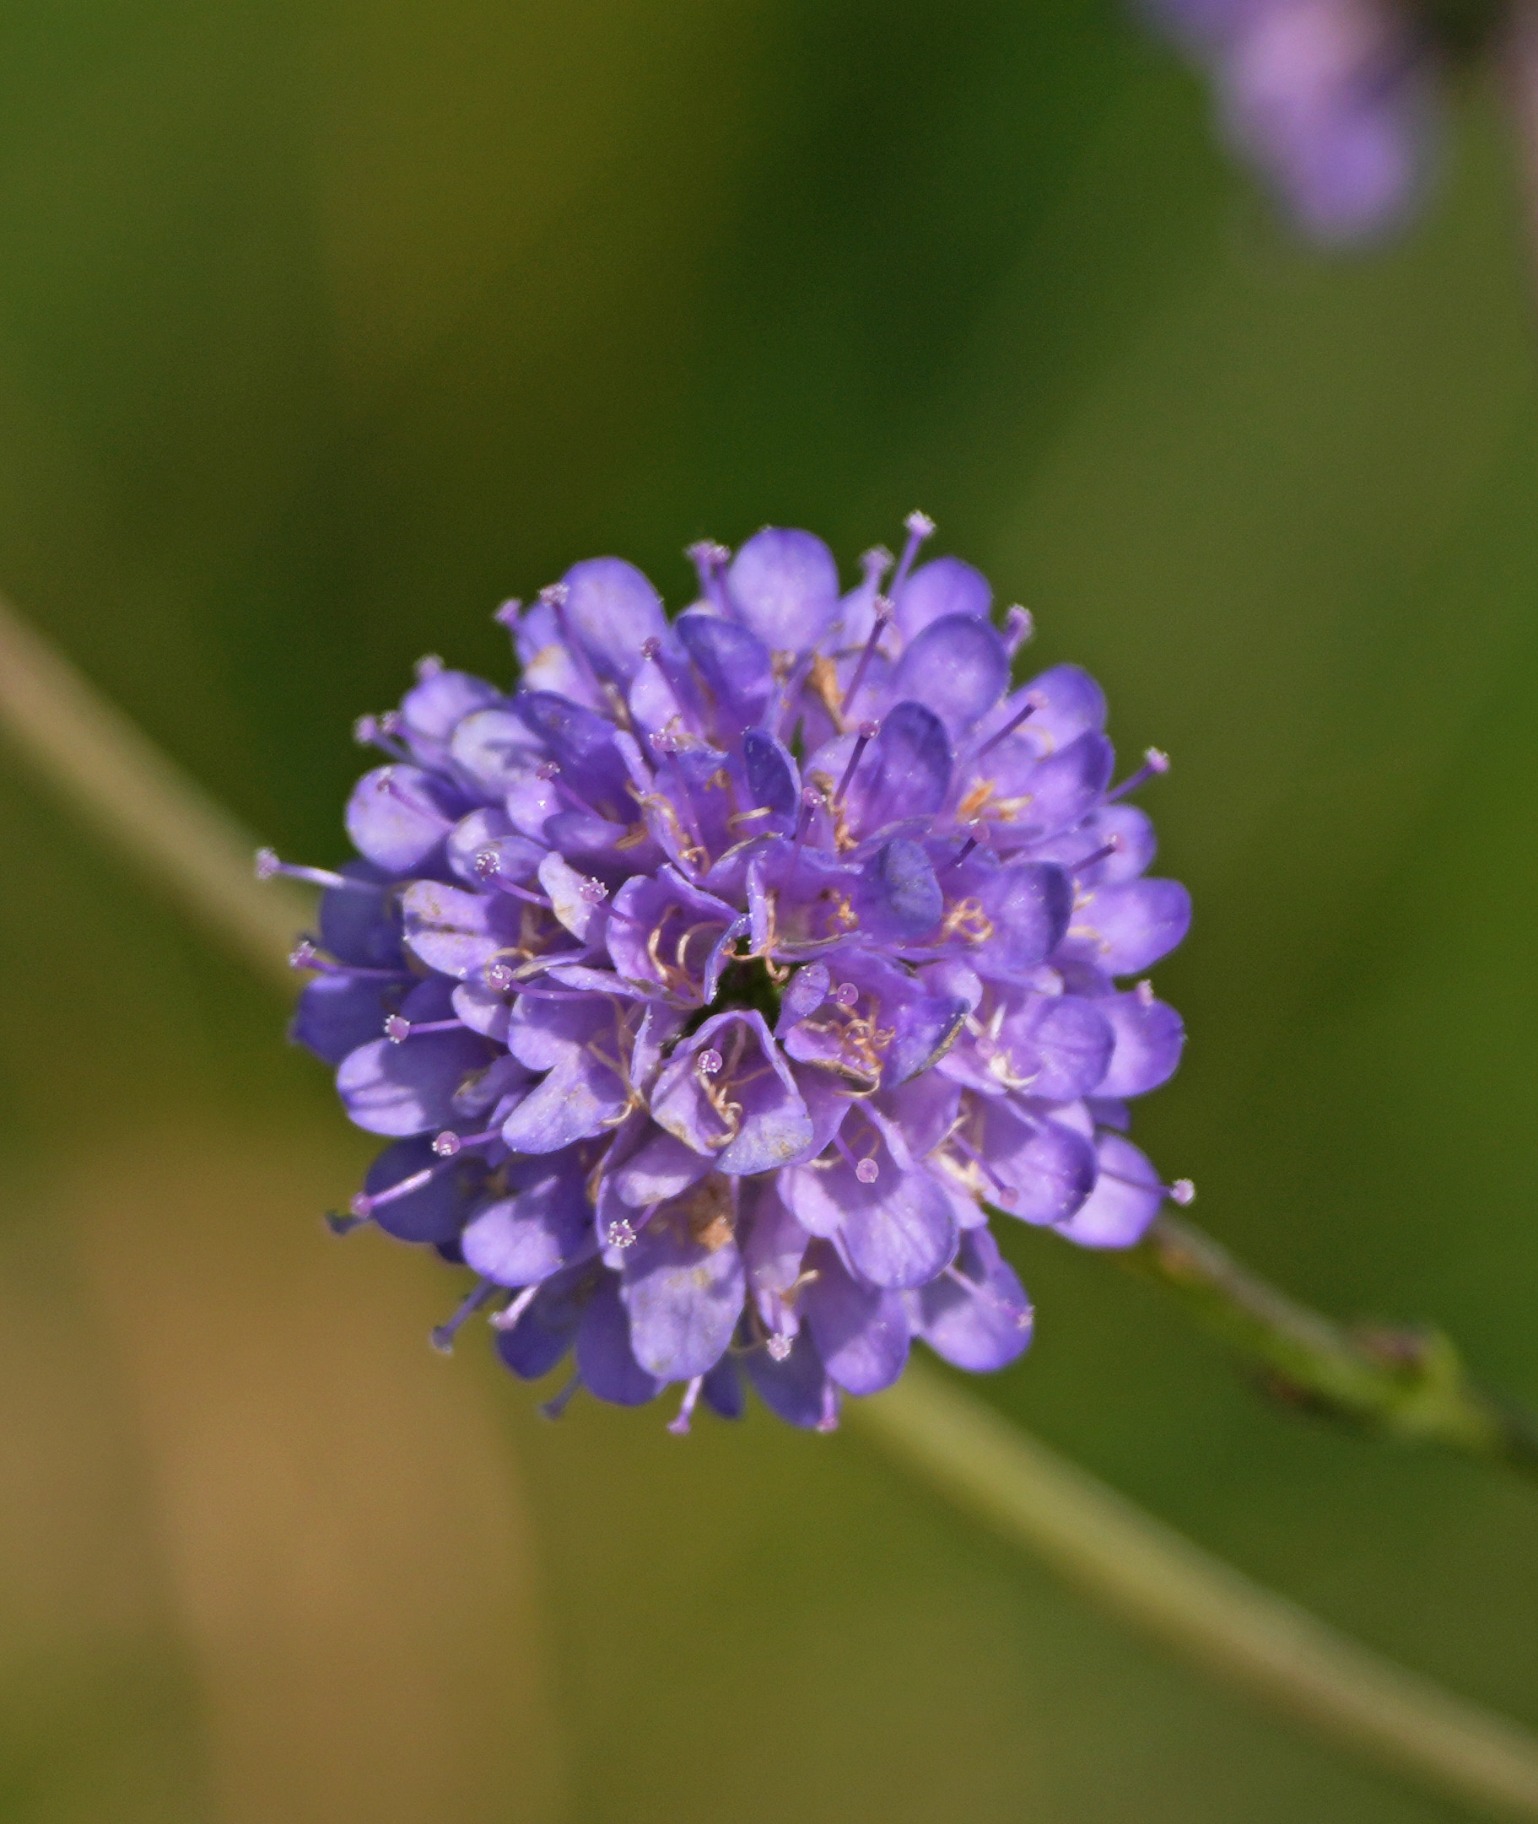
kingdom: Plantae
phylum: Tracheophyta
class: Magnoliopsida
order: Dipsacales
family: Caprifoliaceae
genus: Succisa
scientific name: Succisa pratensis
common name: Djævelsbid
